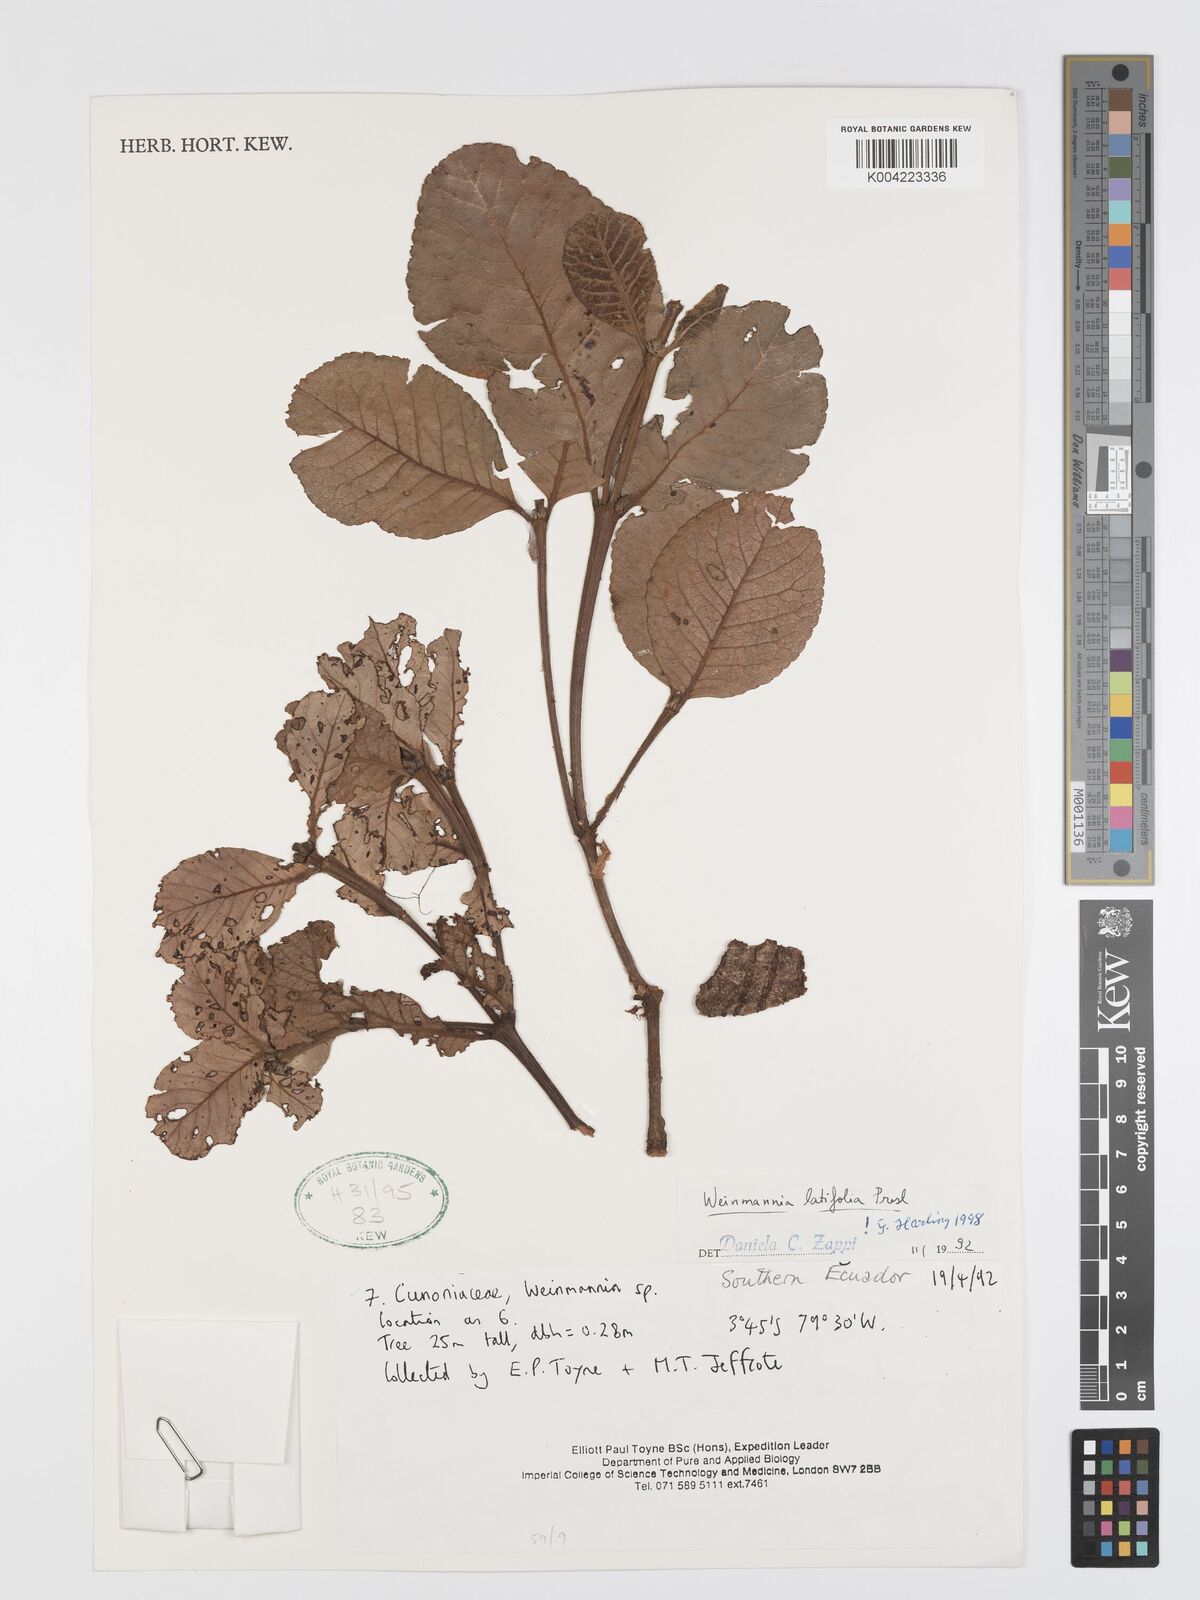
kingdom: Plantae
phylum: Tracheophyta
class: Magnoliopsida
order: Oxalidales
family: Cunoniaceae
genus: Weinmannia
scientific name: Weinmannia latifolia
